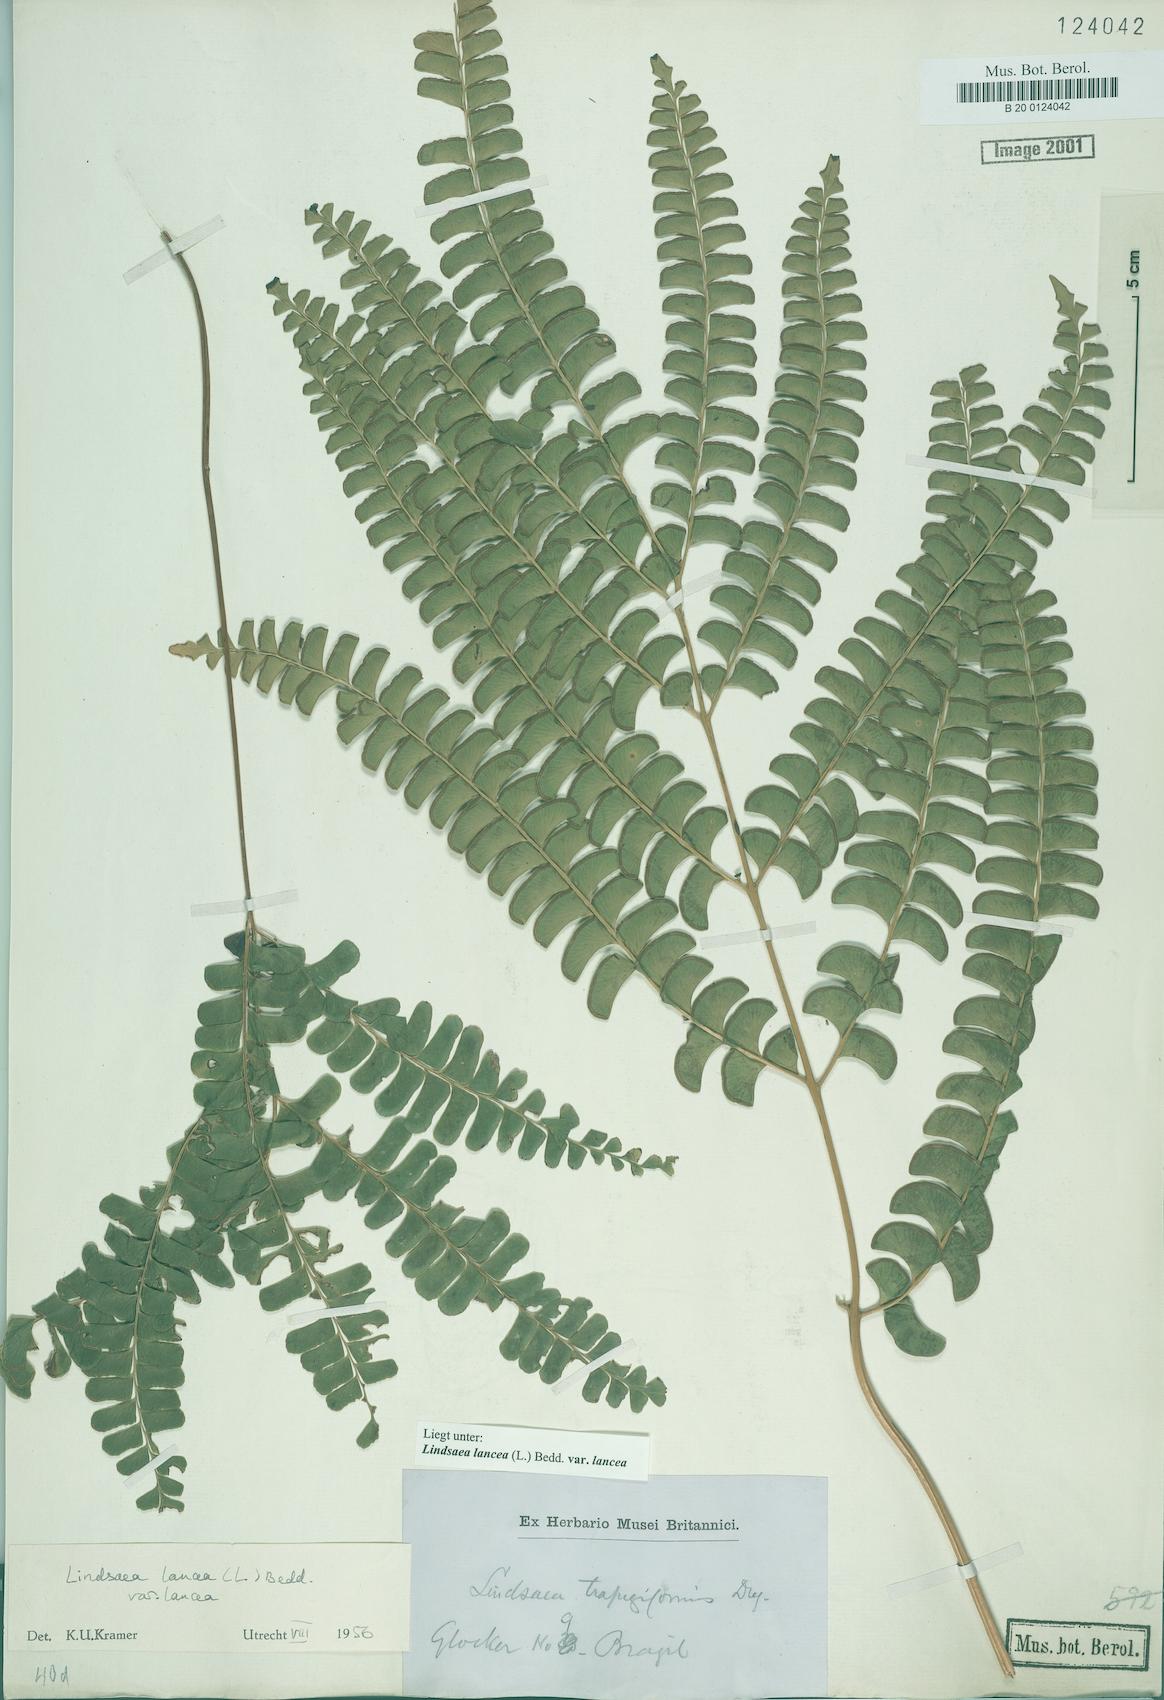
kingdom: Plantae
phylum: Tracheophyta
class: Polypodiopsida
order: Polypodiales
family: Lindsaeaceae
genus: Lindsaea
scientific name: Lindsaea lancea
